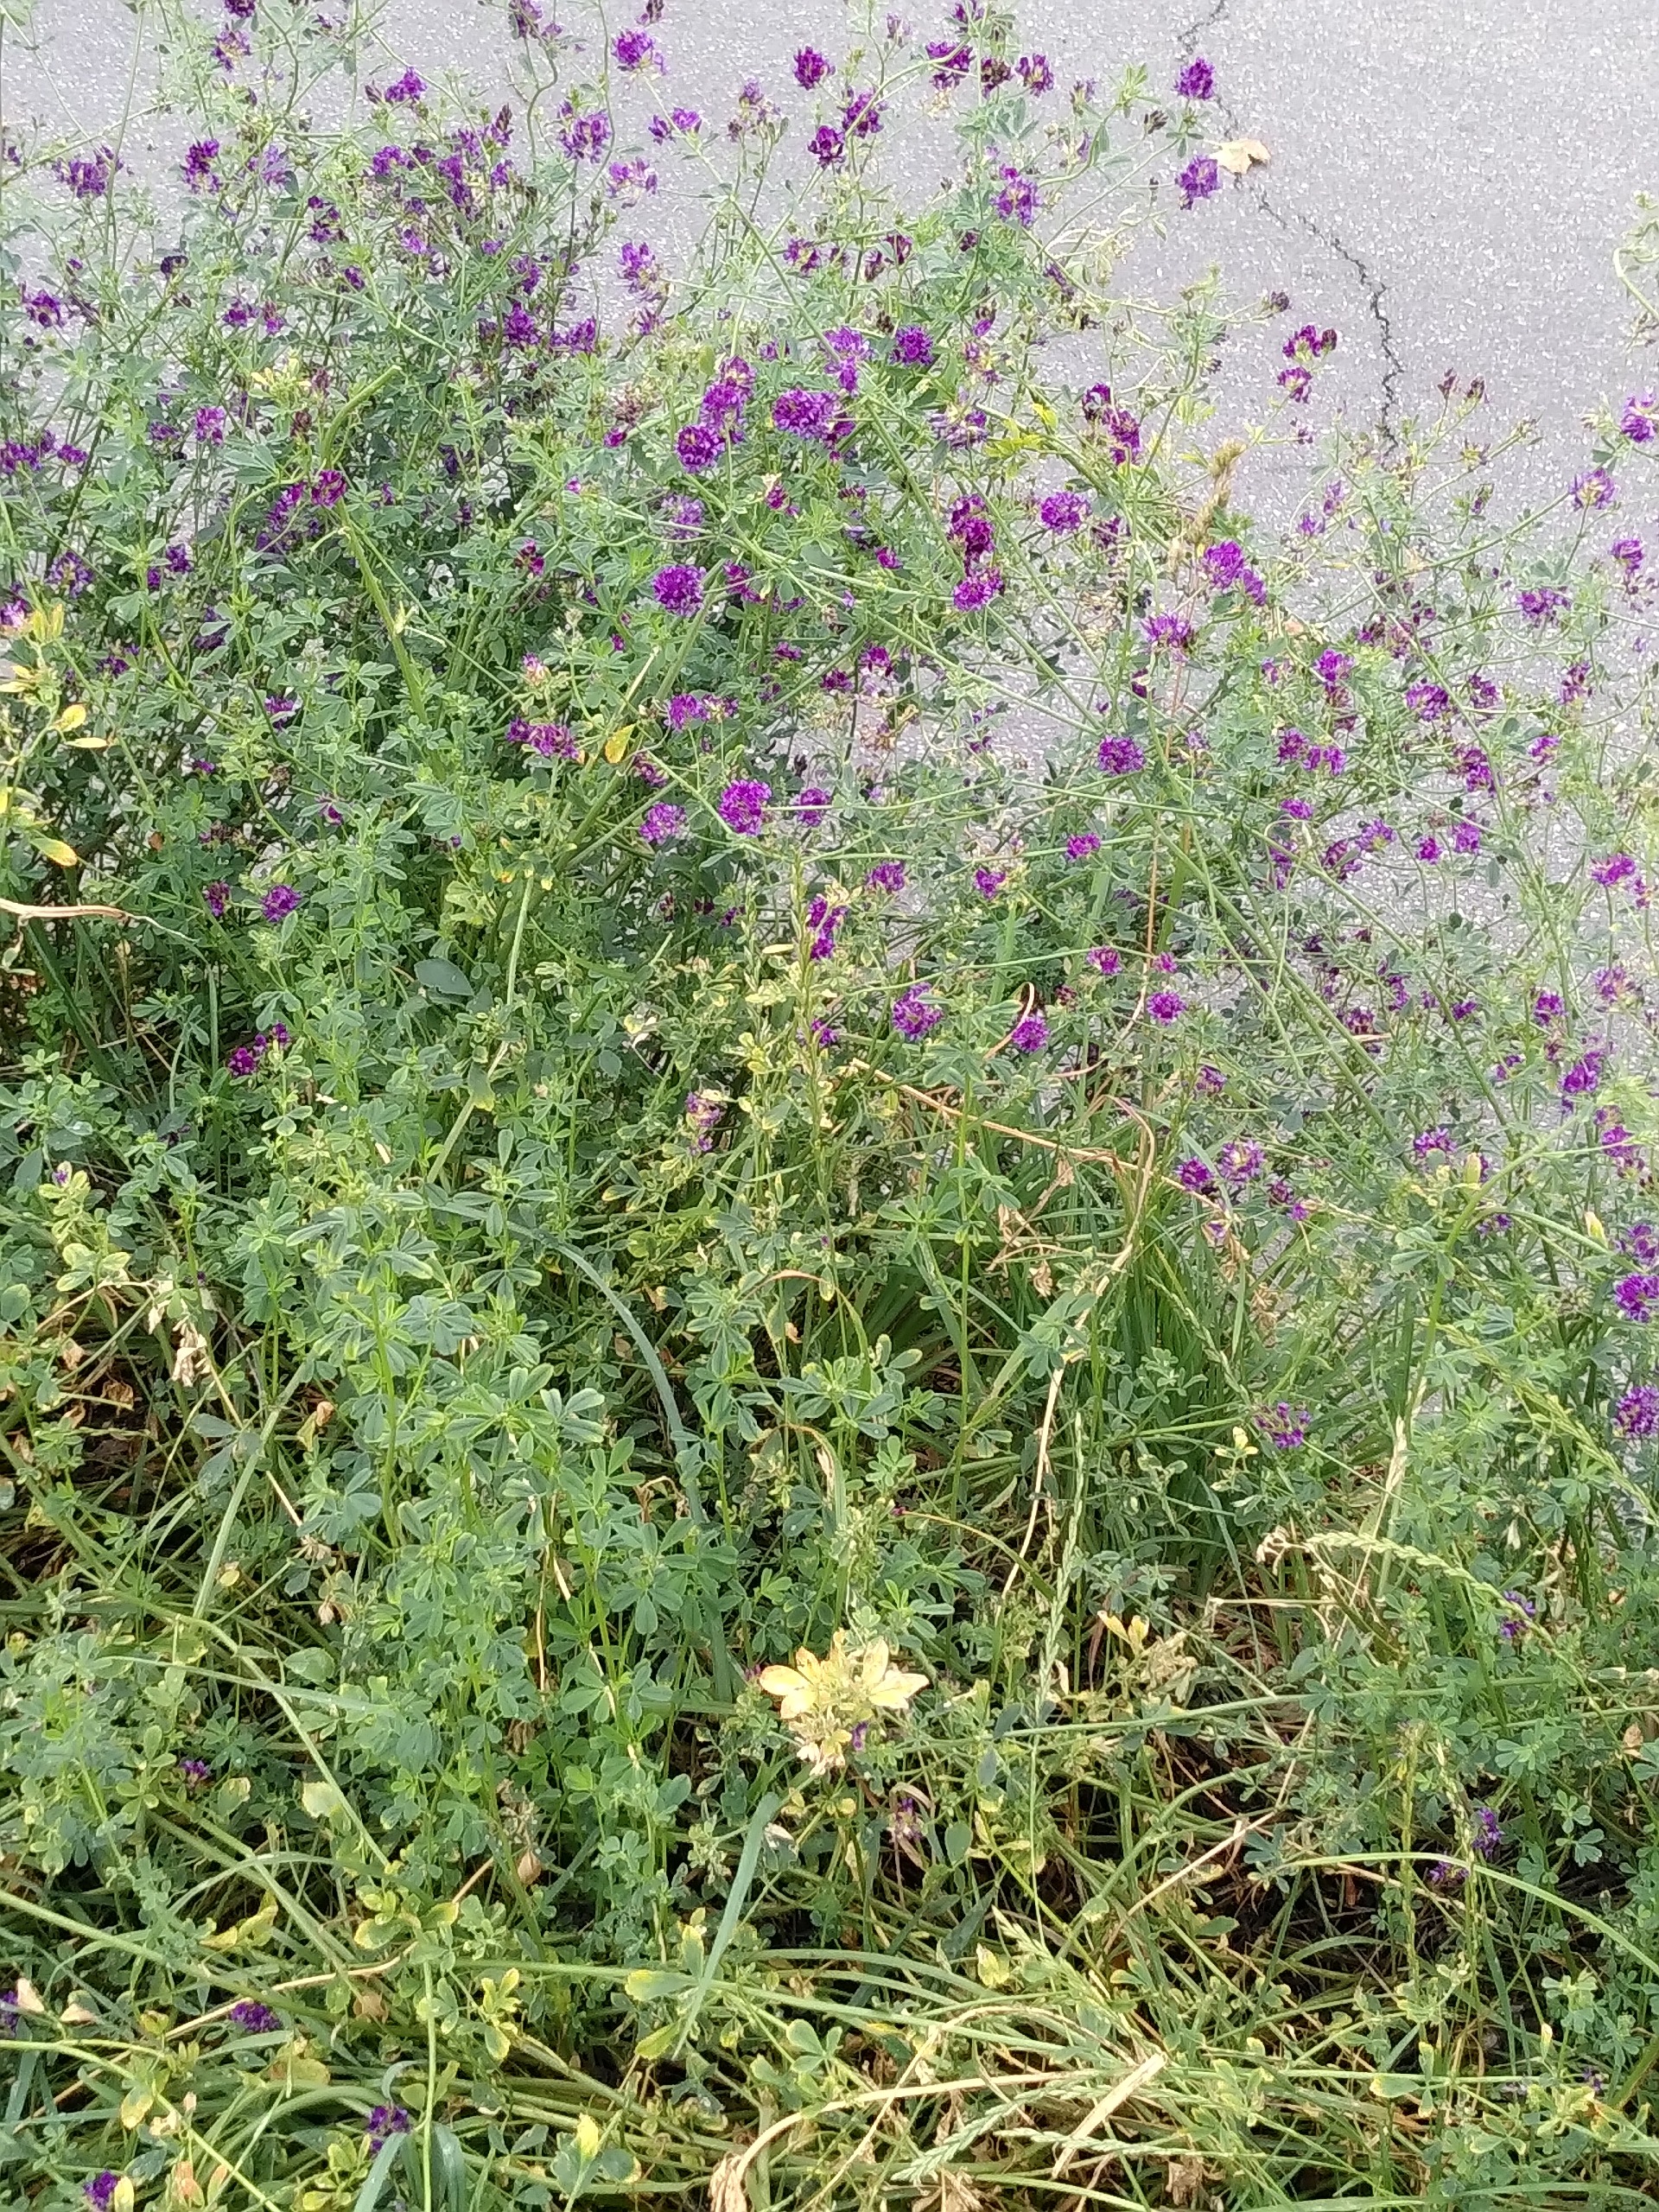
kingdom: Plantae
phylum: Tracheophyta
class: Magnoliopsida
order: Fabales
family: Fabaceae
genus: Medicago
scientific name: Medicago sativa
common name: Foderlucerne
